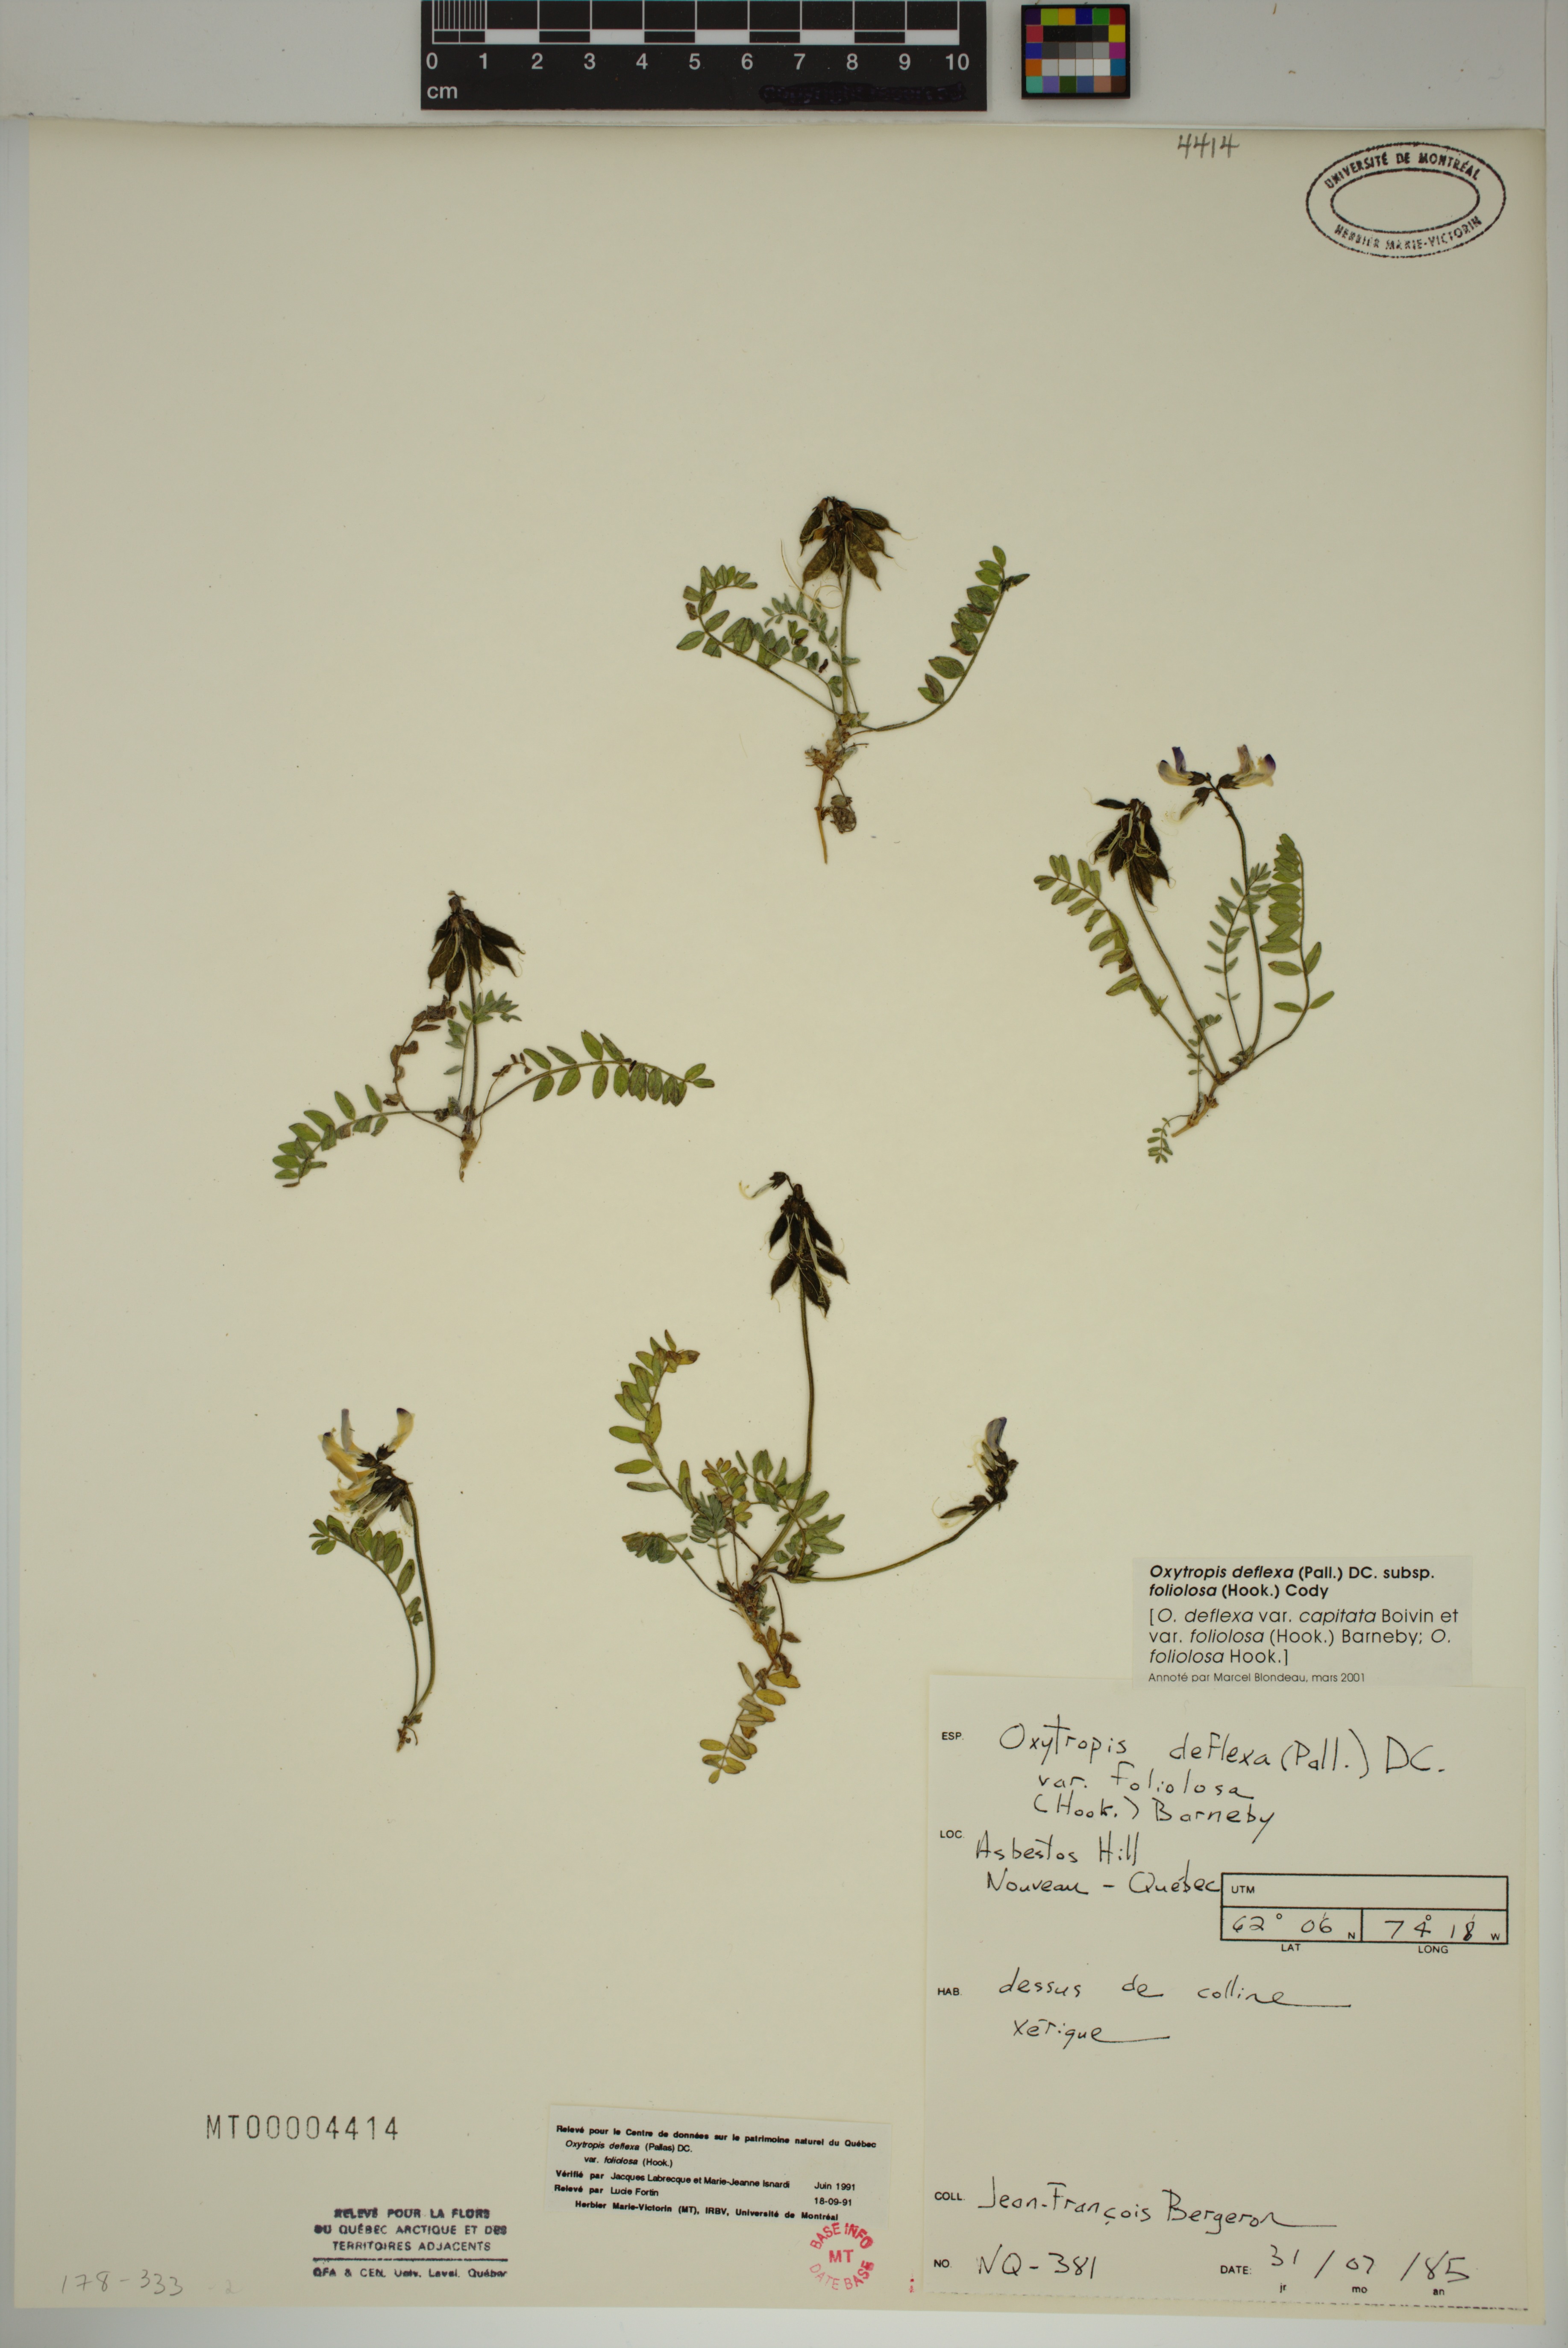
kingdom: Plantae
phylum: Tracheophyta
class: Magnoliopsida
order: Fabales
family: Fabaceae
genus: Oxytropis
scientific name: Oxytropis deflexa
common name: Stemmed oxytrope
